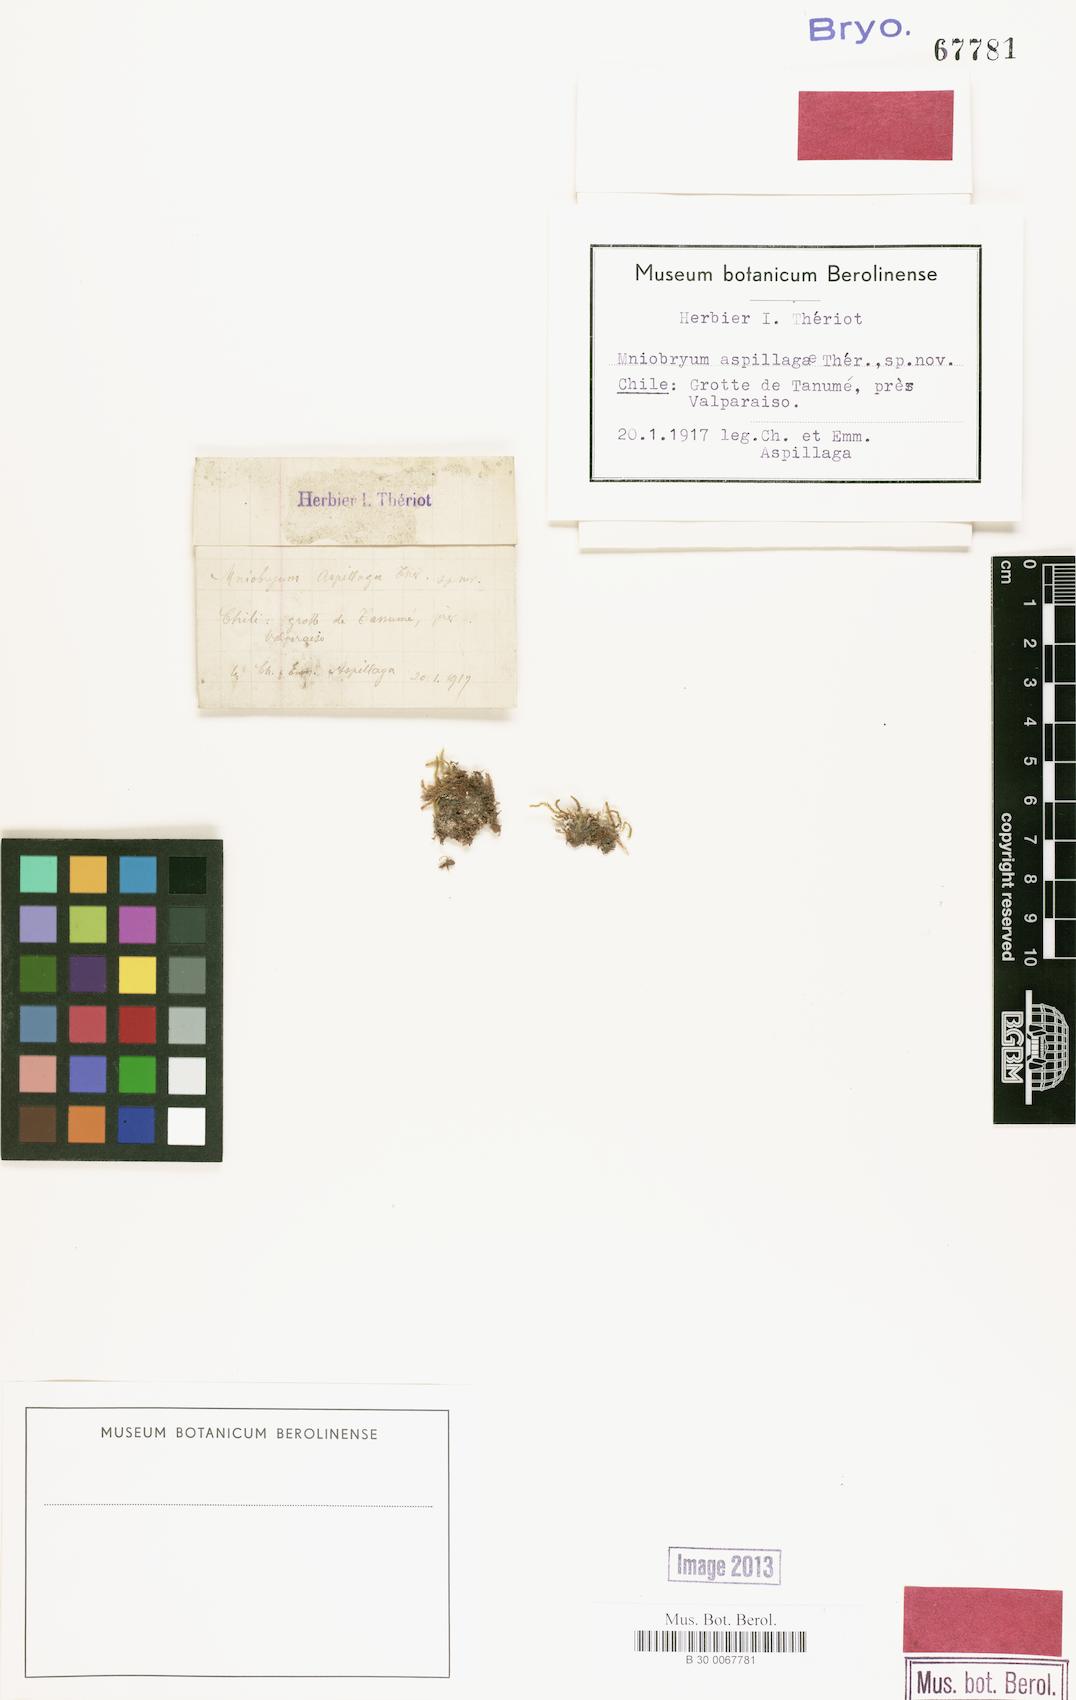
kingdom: Plantae
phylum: Bryophyta
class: Bryopsida
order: Bryales
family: Mniaceae
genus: Pohlia
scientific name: Pohlia wilsonii
